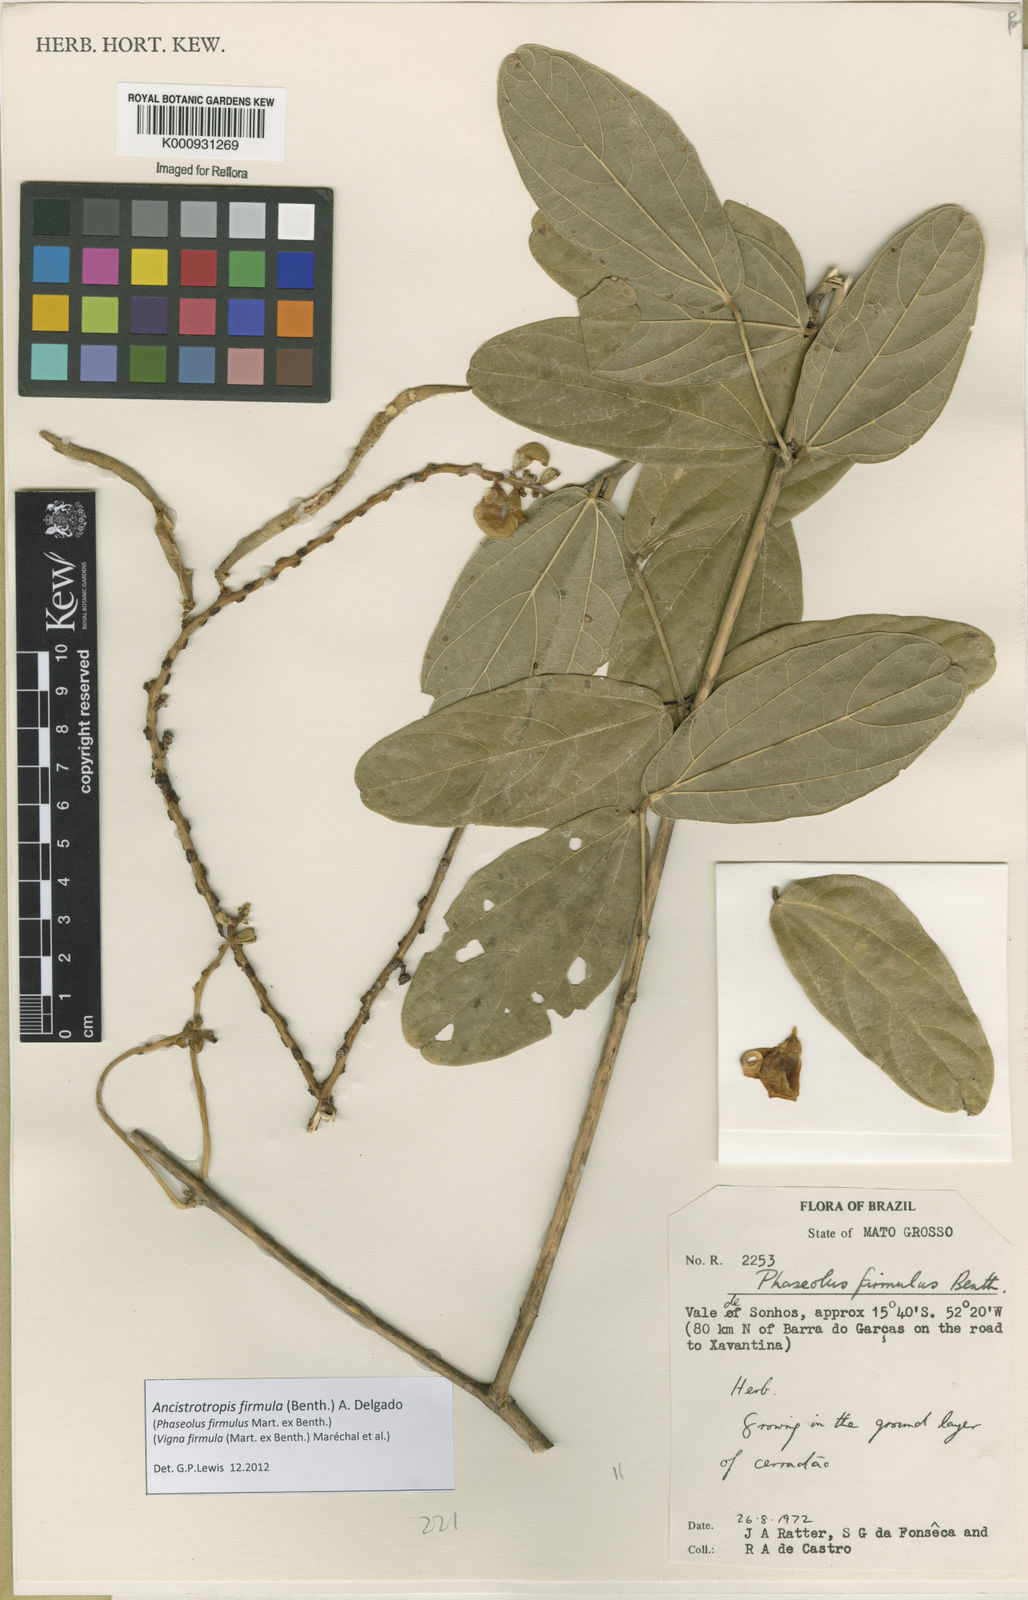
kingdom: Plantae
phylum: Tracheophyta
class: Magnoliopsida
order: Fabales
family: Fabaceae
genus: Ancistrotropis
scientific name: Ancistrotropis firmula
